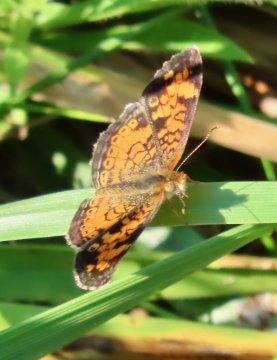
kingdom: Animalia
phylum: Arthropoda
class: Insecta
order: Lepidoptera
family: Nymphalidae
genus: Phyciodes
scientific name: Phyciodes tharos
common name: Pearl Crescent
